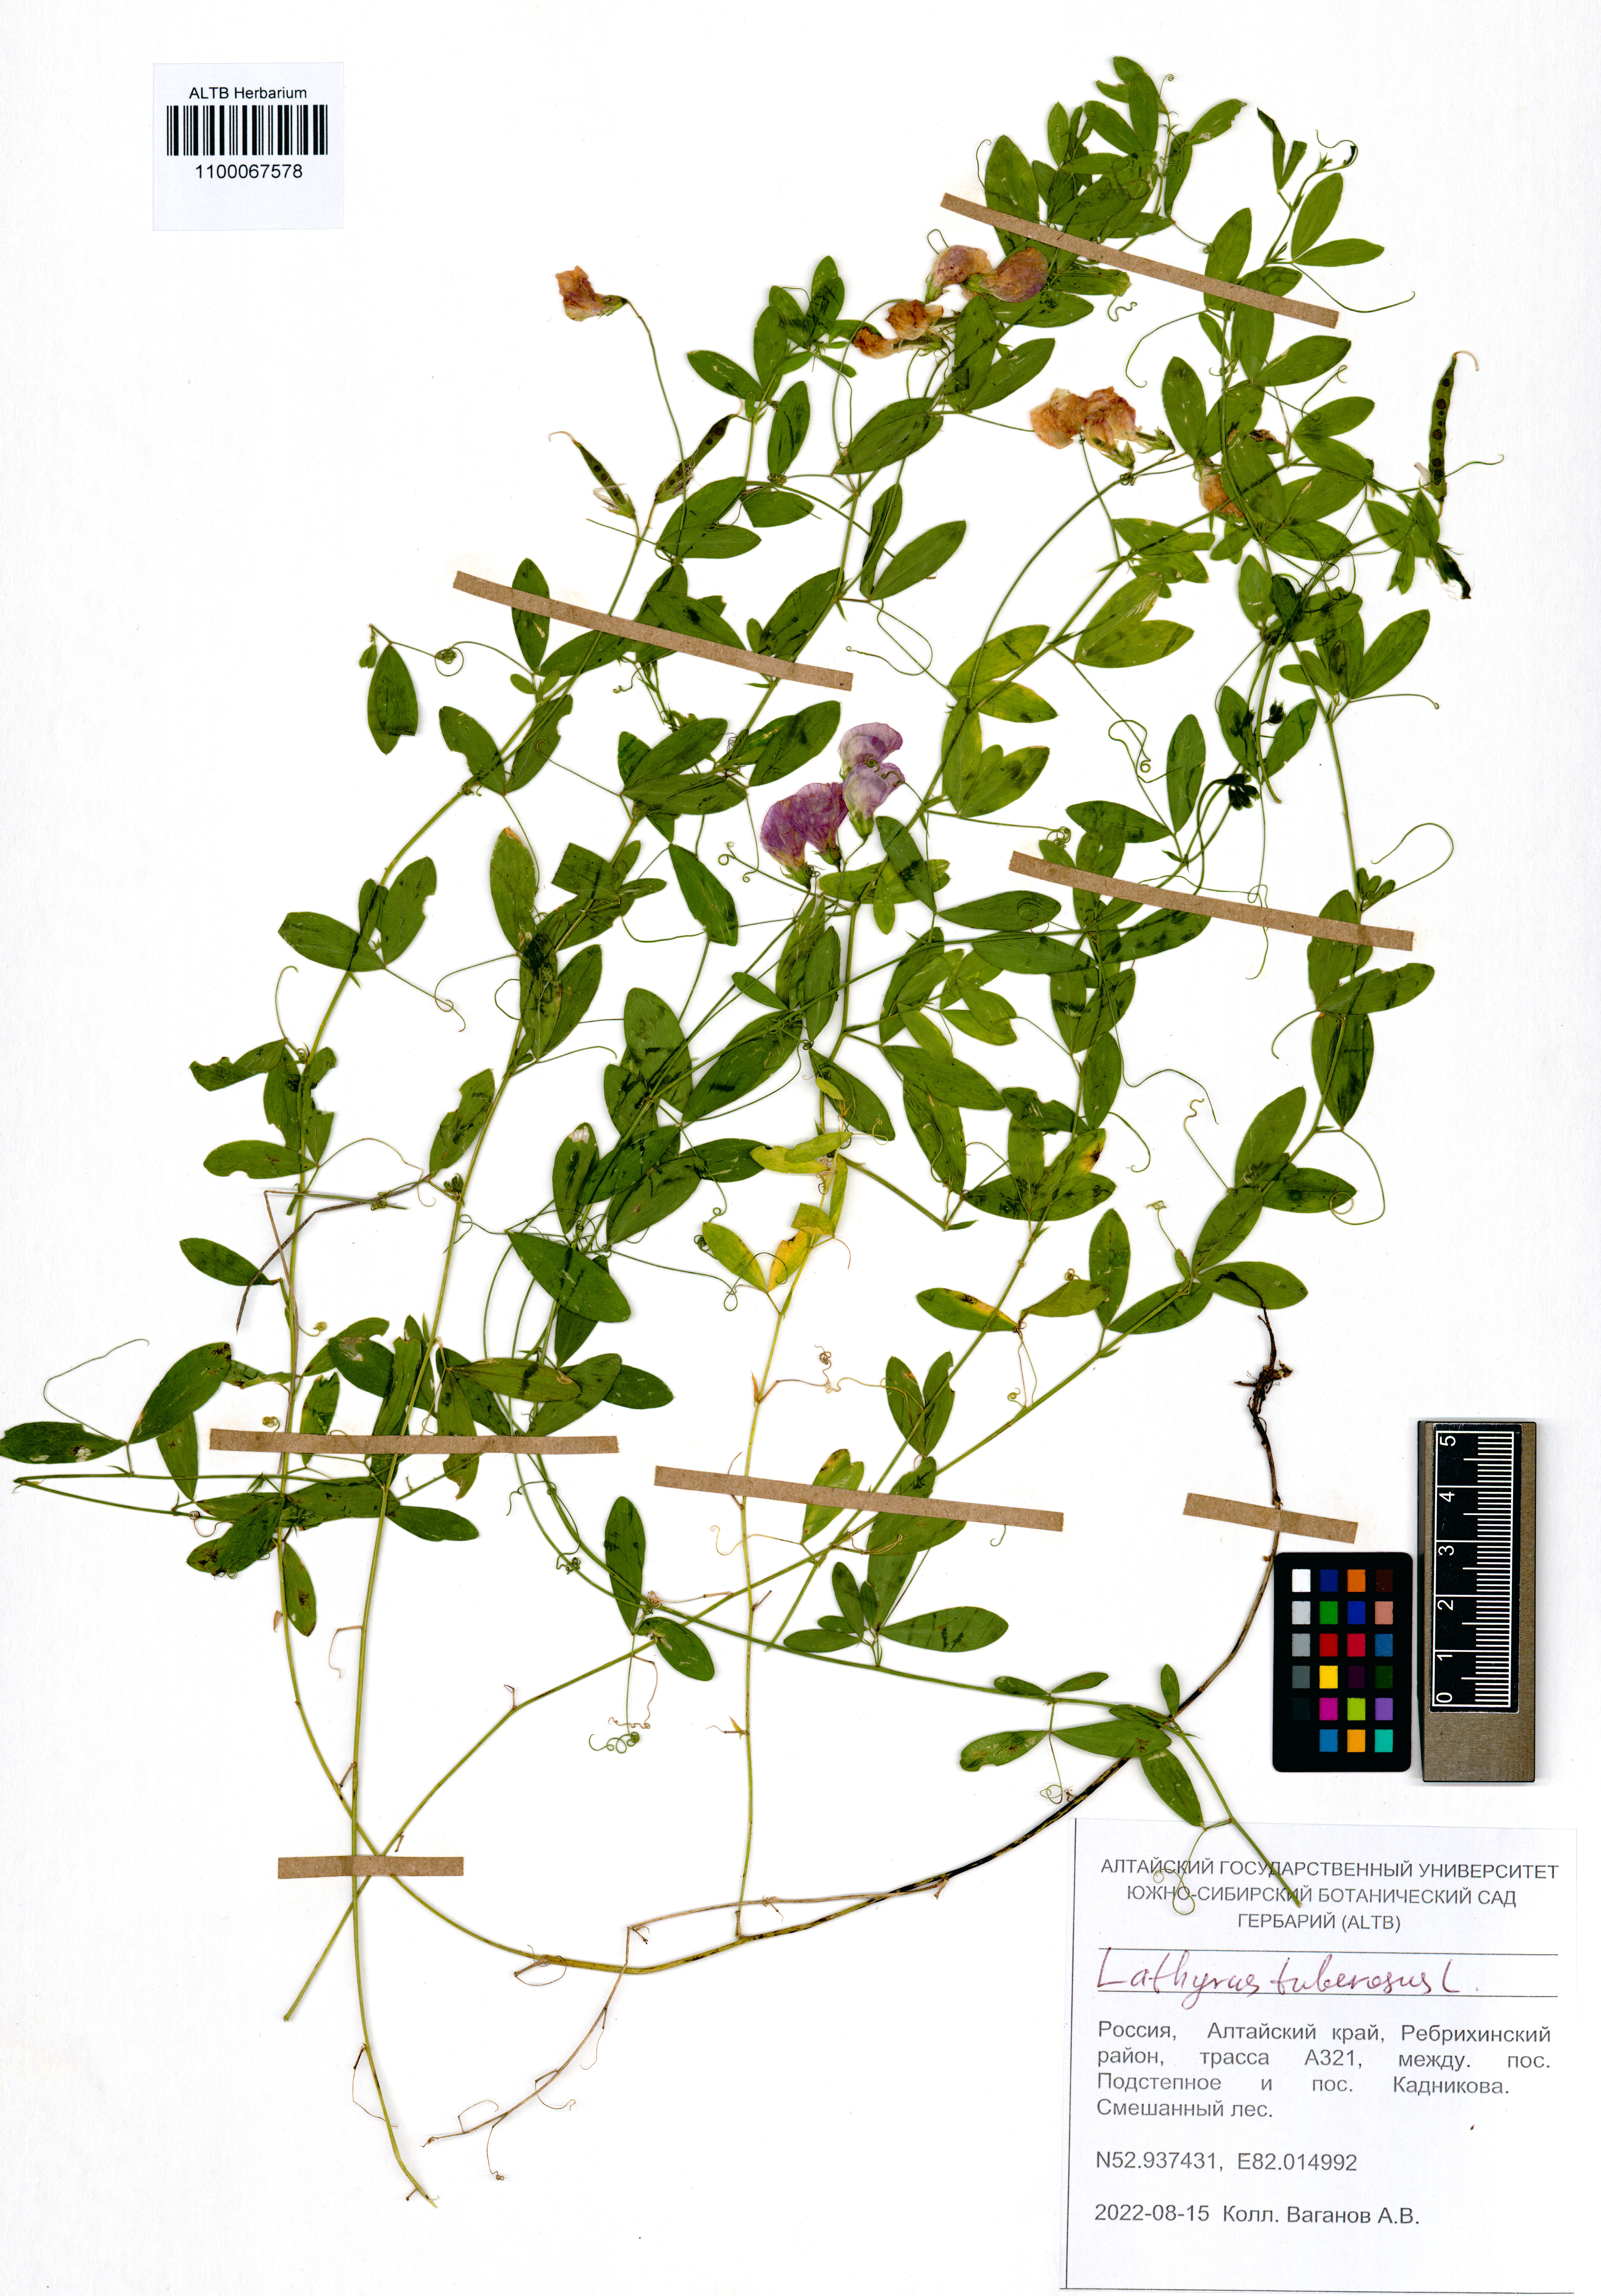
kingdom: Plantae
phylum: Tracheophyta
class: Magnoliopsida
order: Fabales
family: Fabaceae
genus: Lathyrus
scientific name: Lathyrus tuberosus
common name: Tuberous pea
